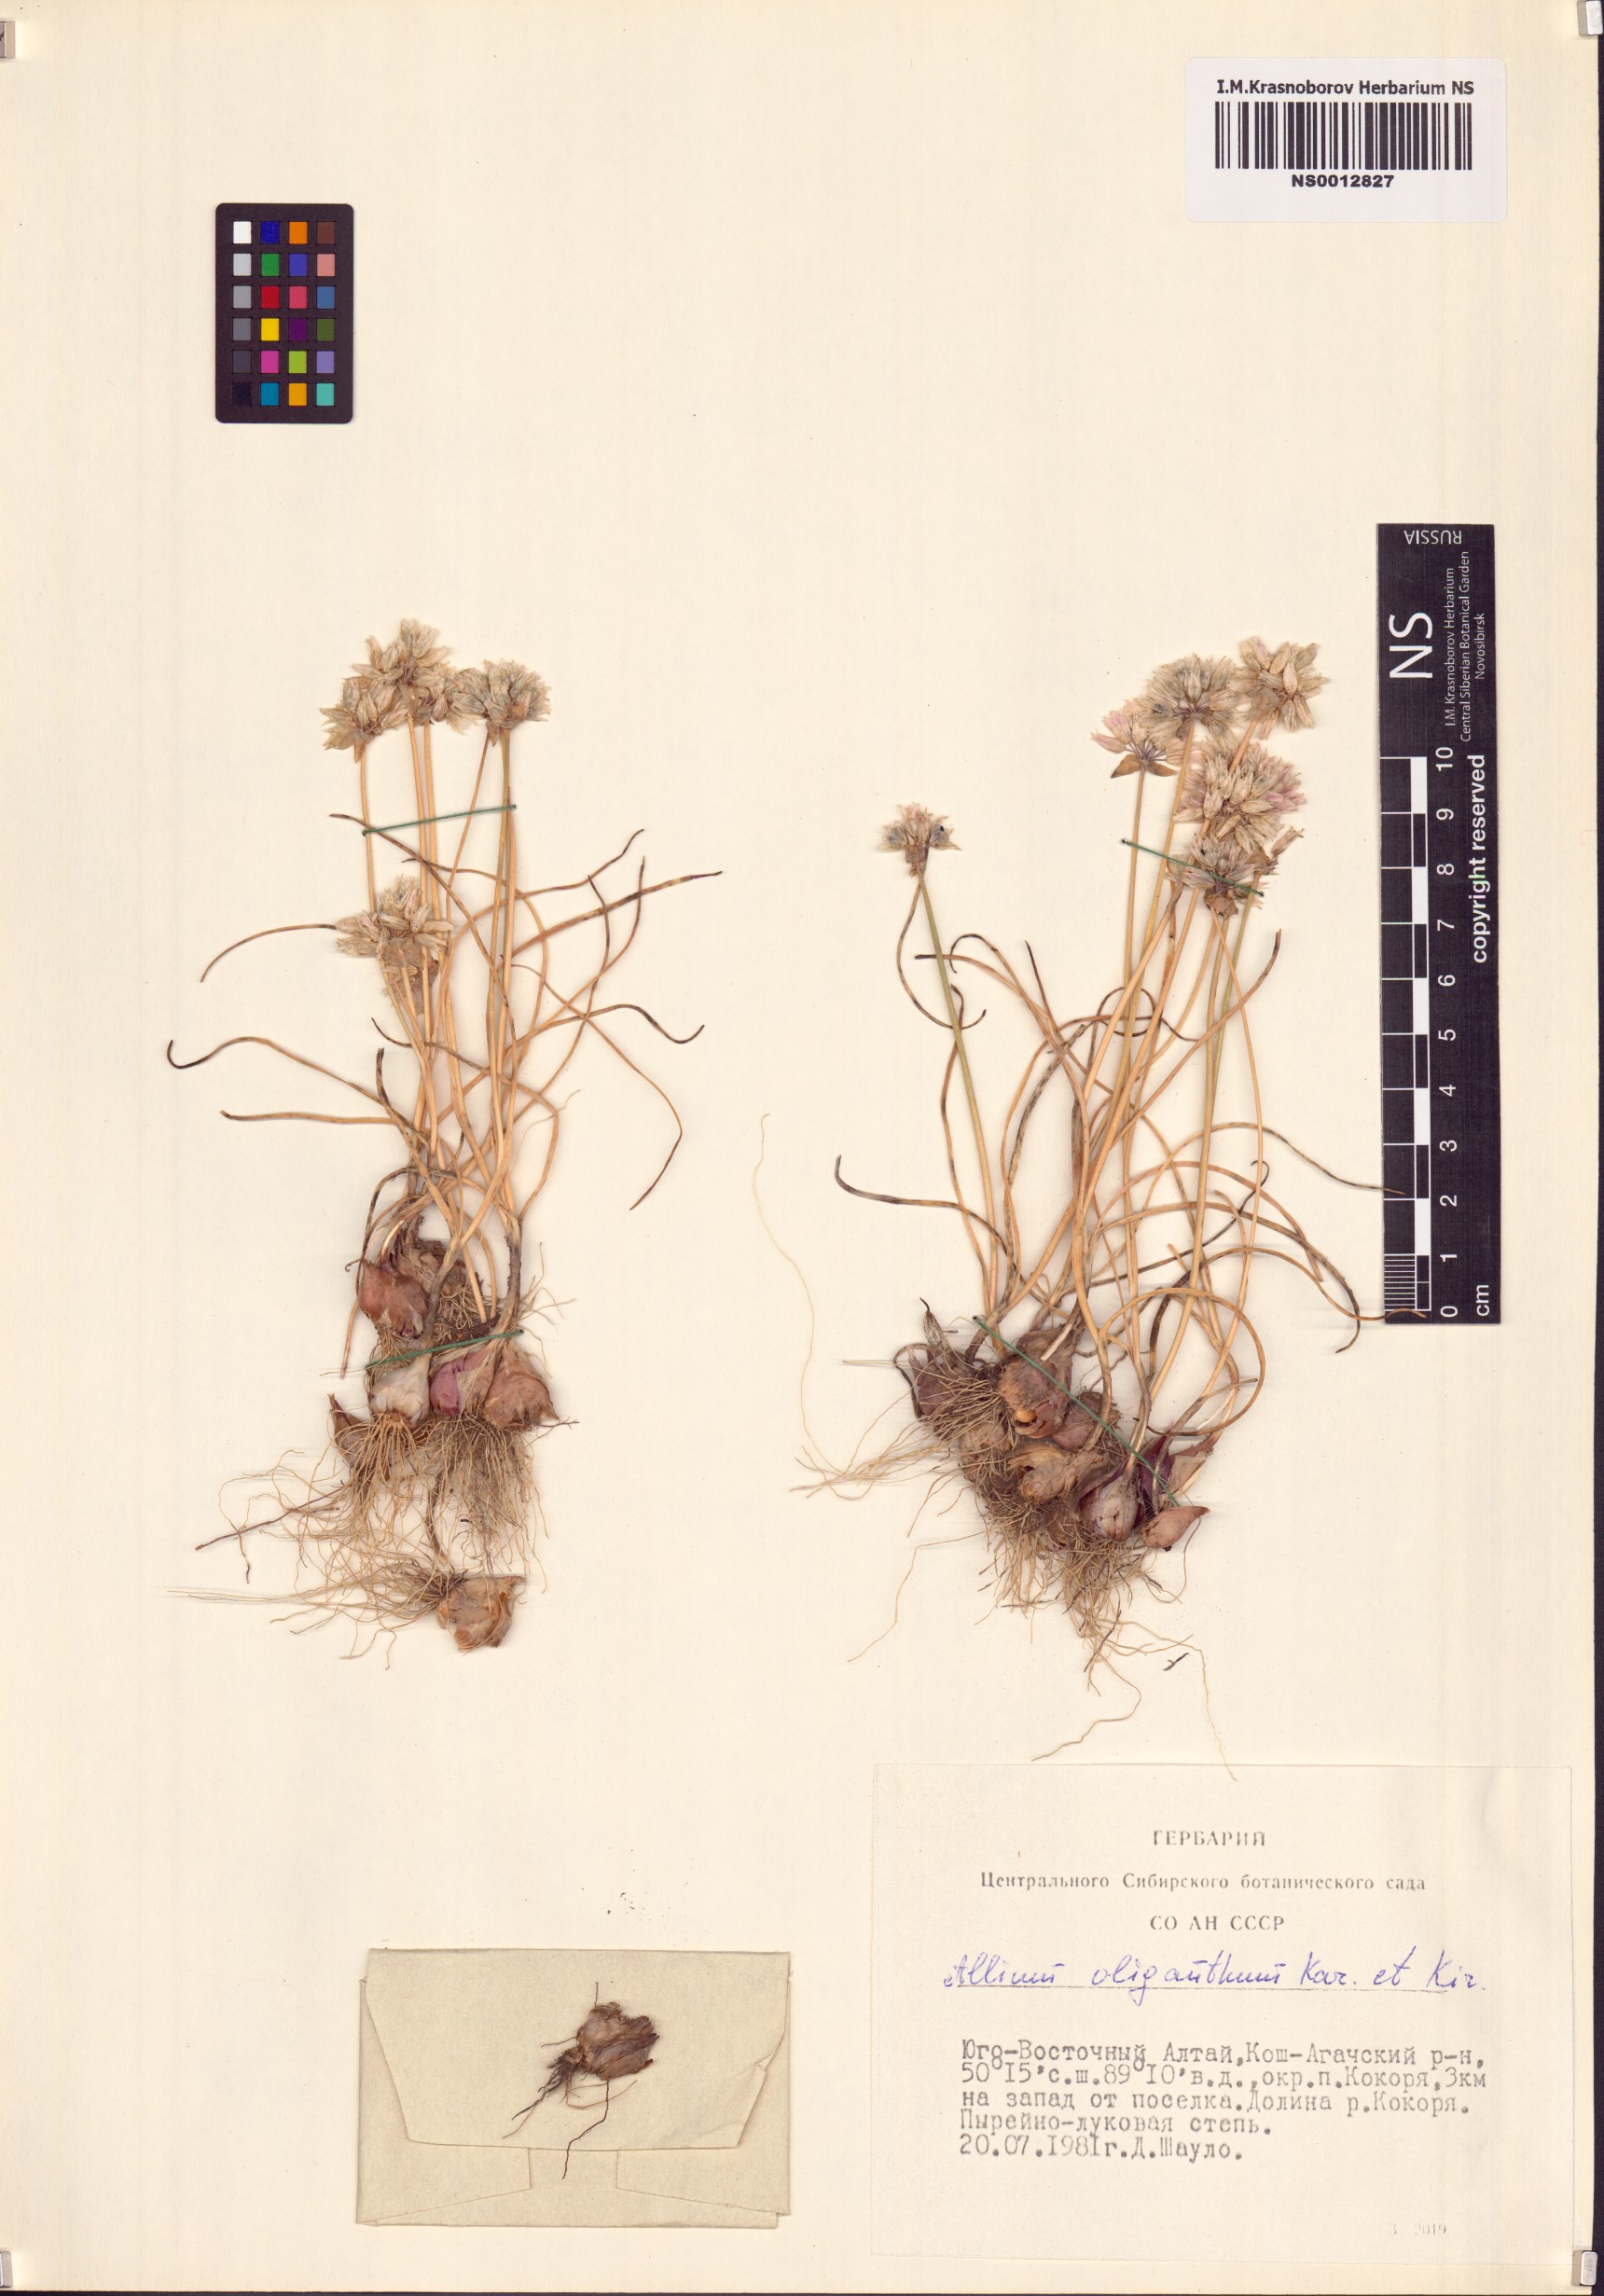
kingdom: Plantae
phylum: Tracheophyta
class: Liliopsida
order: Asparagales
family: Amaryllidaceae
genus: Allium
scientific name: Allium oliganthum
